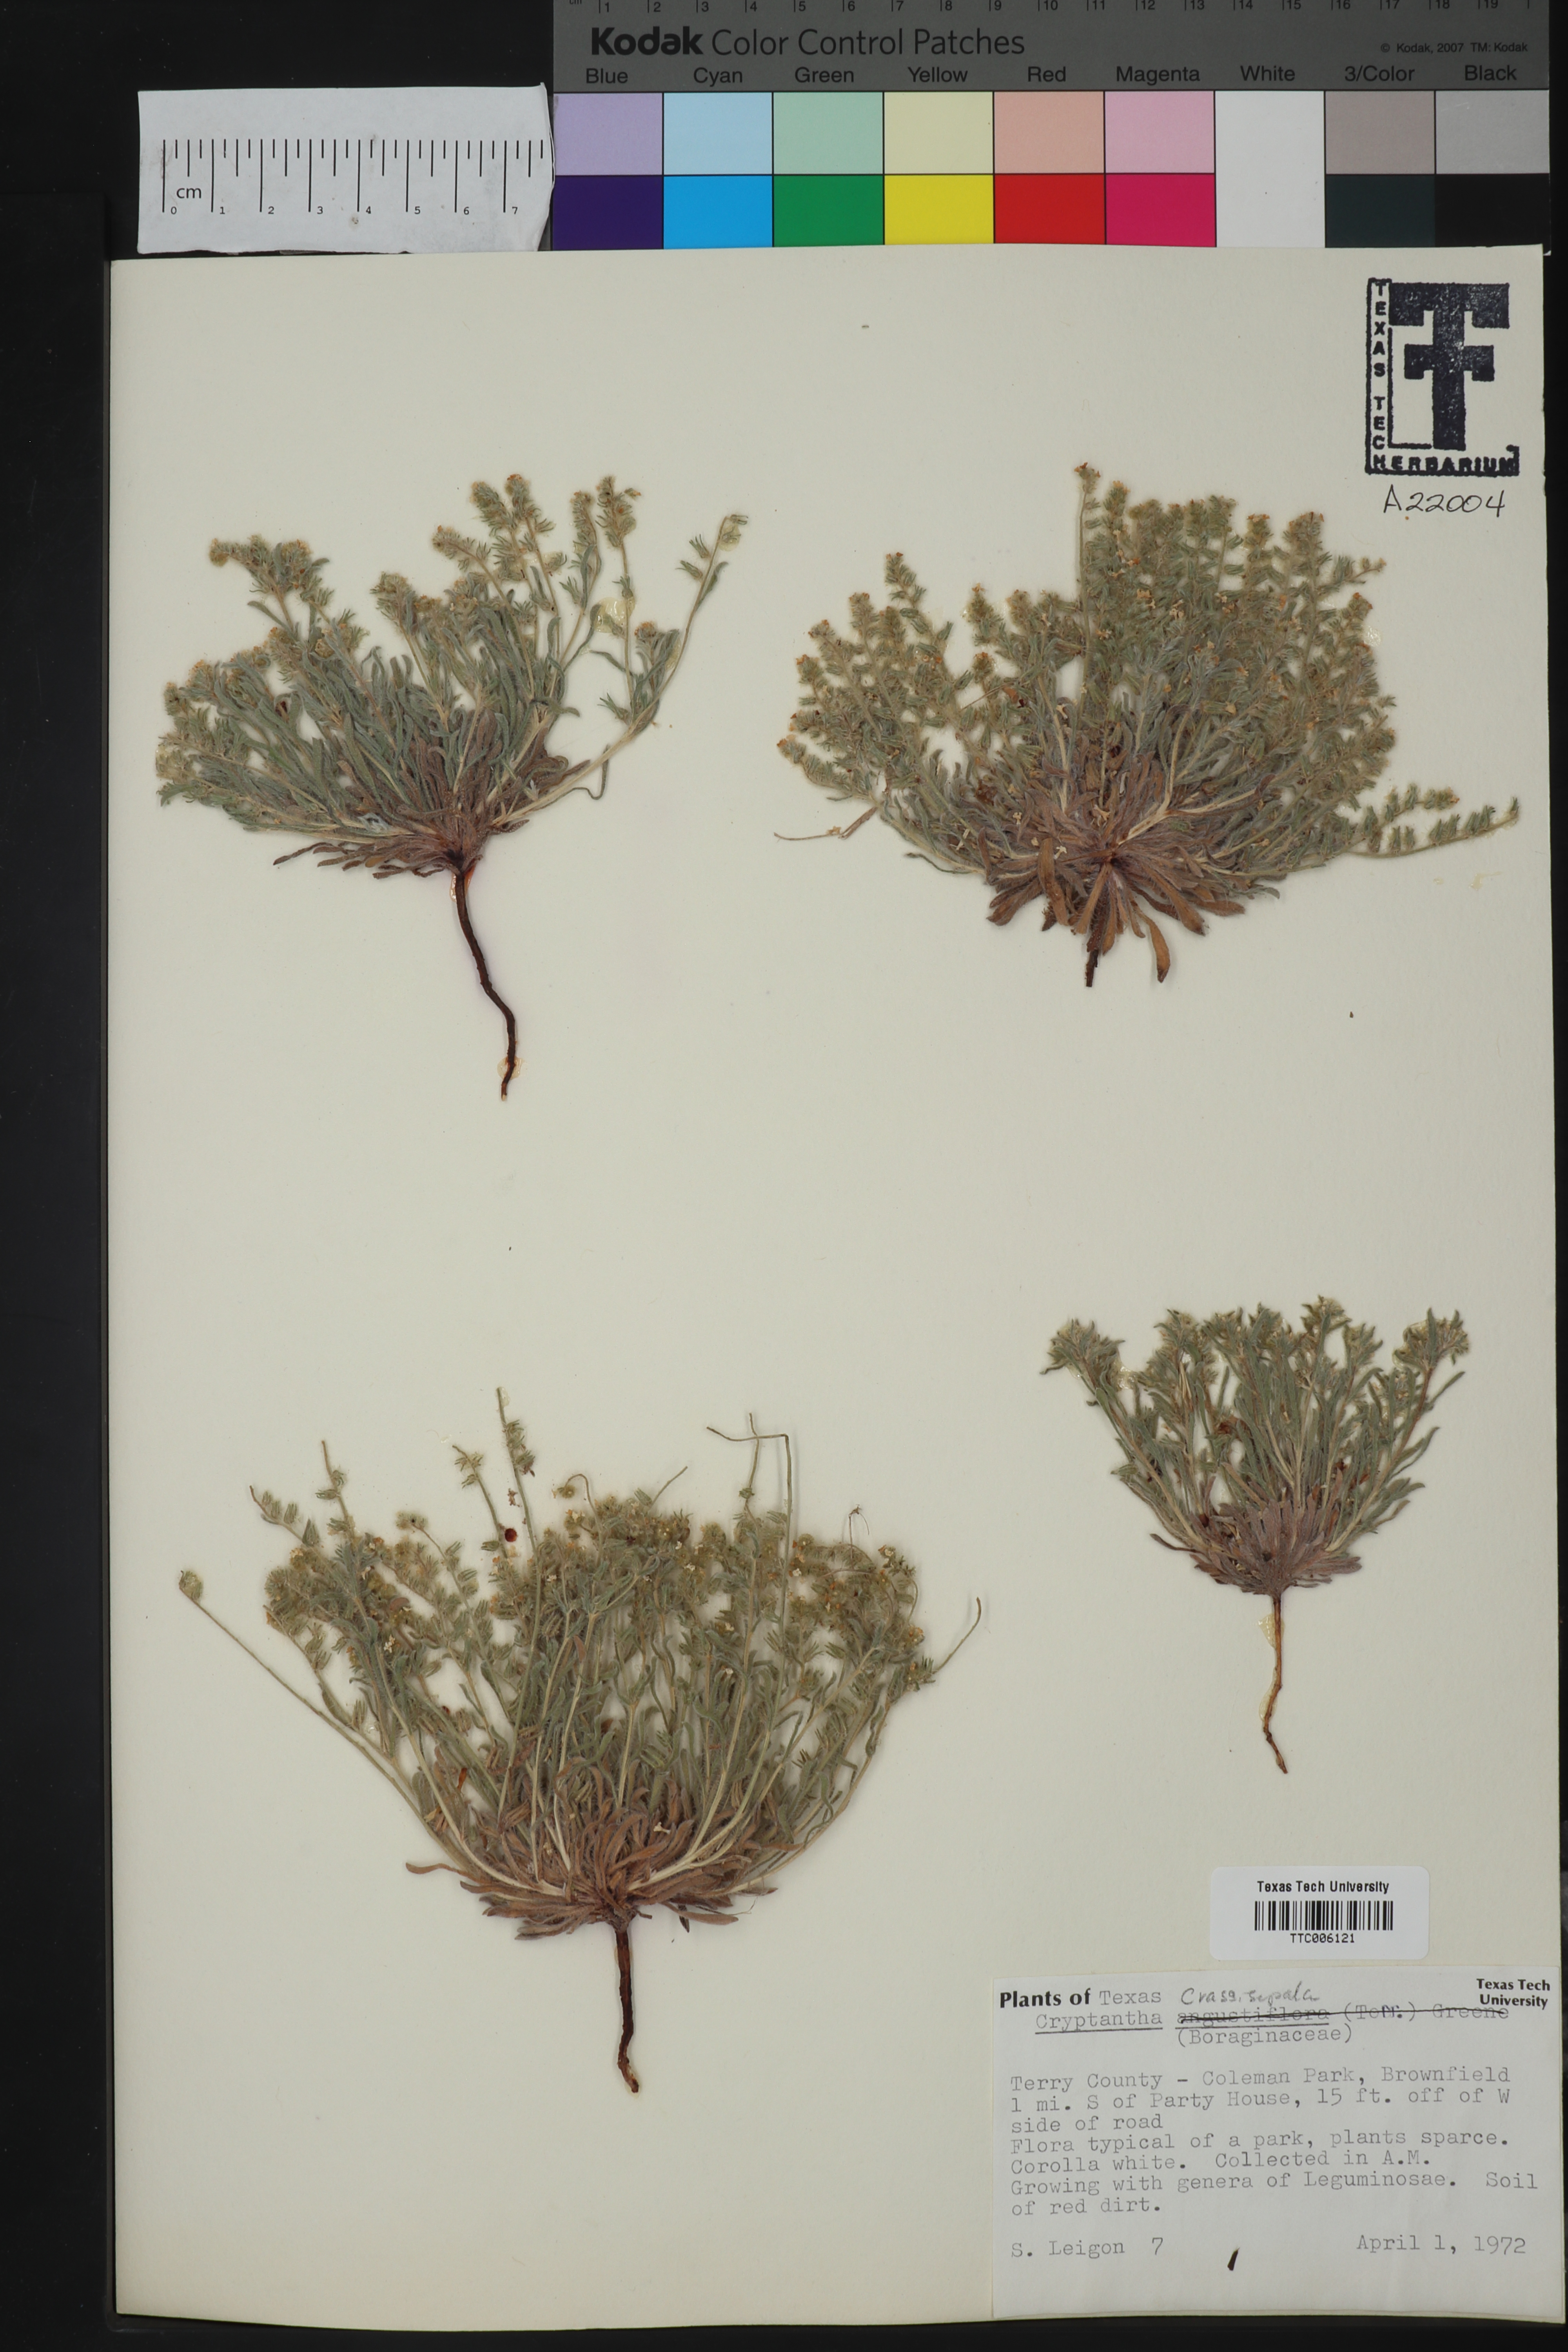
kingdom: Plantae
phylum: Tracheophyta
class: Magnoliopsida
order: Boraginales
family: Boraginaceae
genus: Cryptantha
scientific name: Cryptantha crassisepala
